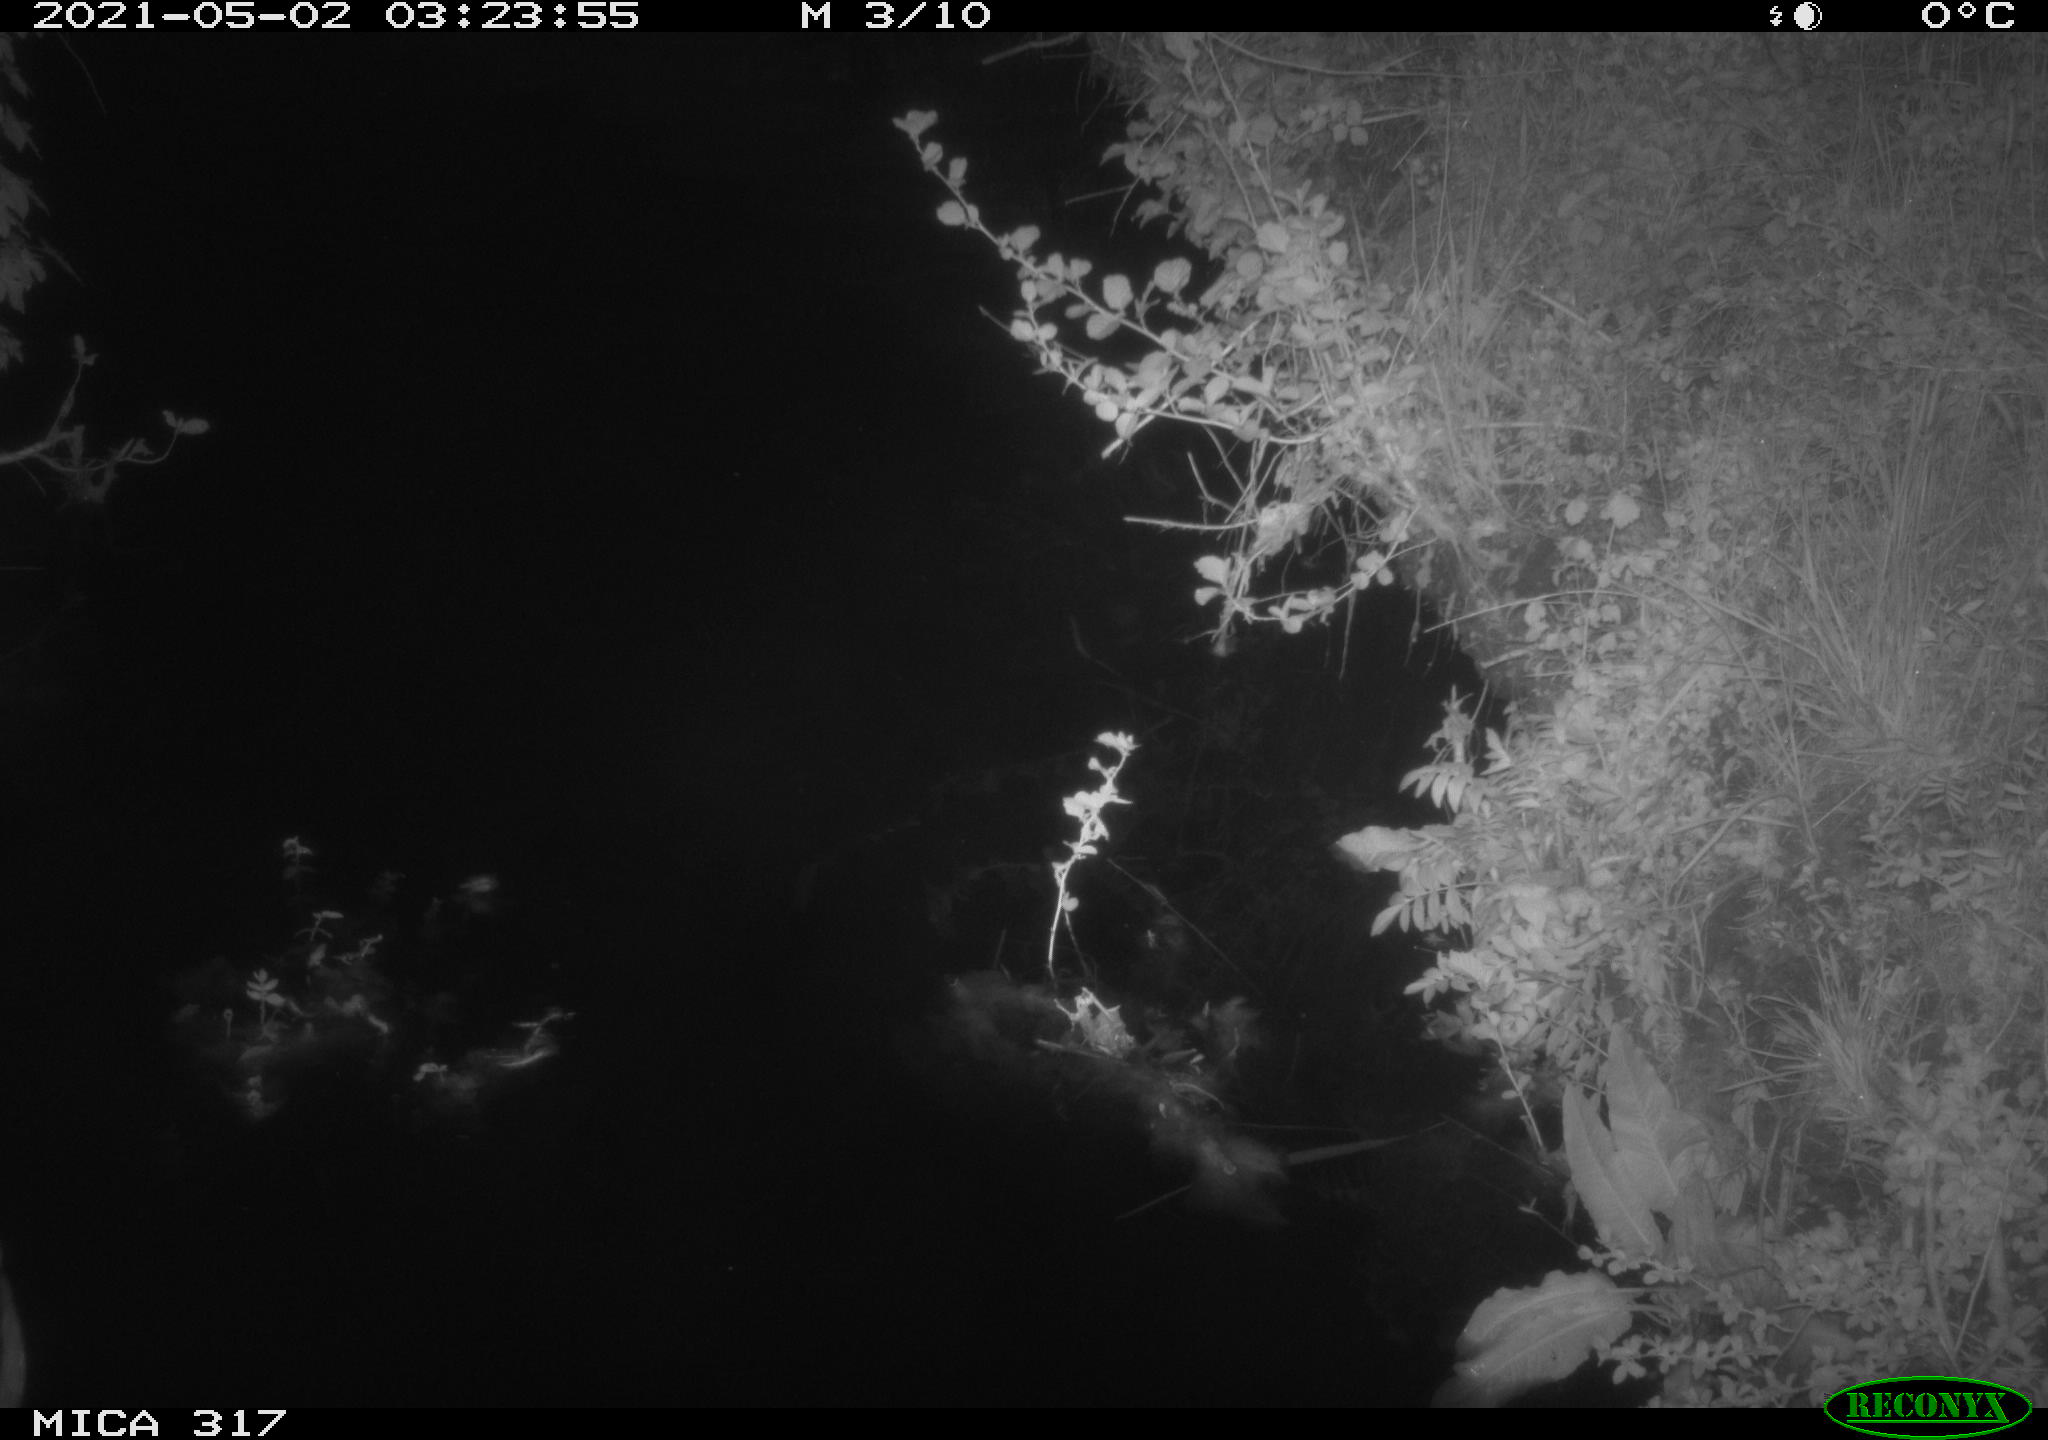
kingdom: Animalia
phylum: Chordata
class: Aves
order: Anseriformes
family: Anatidae
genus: Anas
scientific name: Anas
